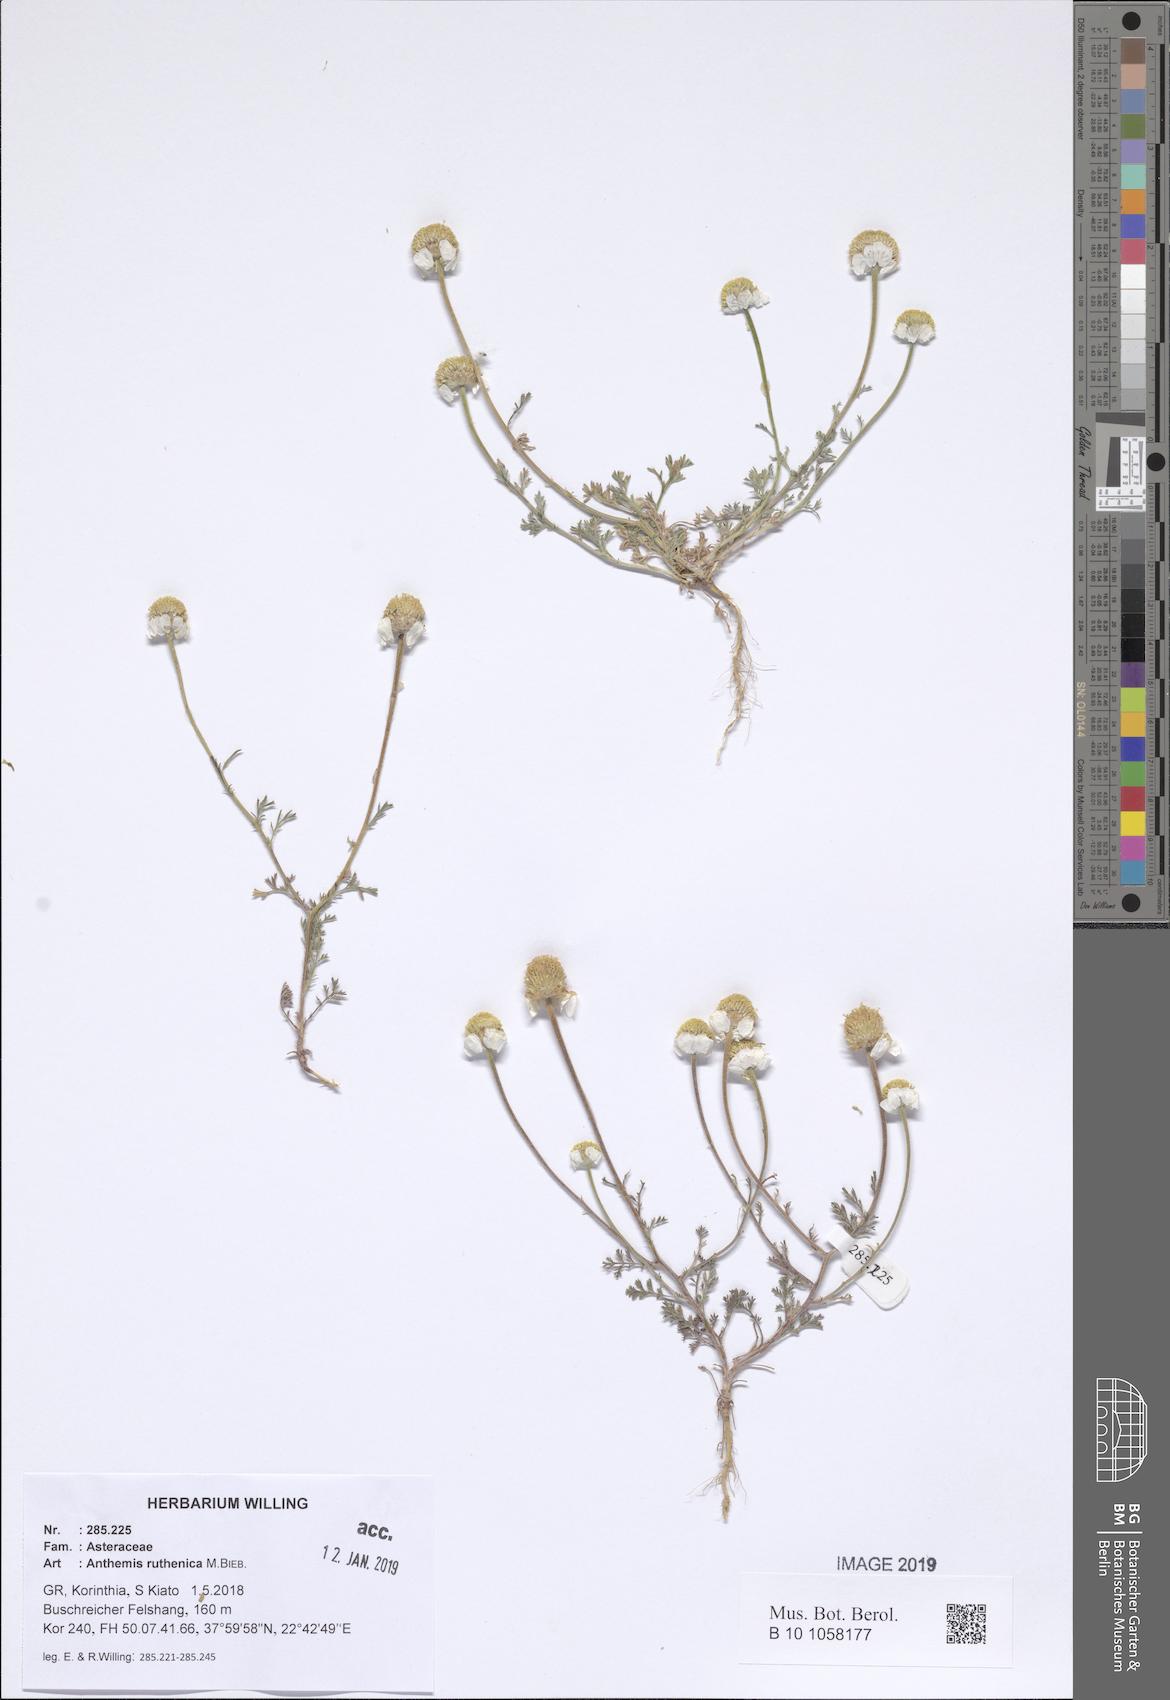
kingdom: Plantae
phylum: Tracheophyta
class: Magnoliopsida
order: Asterales
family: Asteraceae
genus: Anthemis
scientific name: Anthemis ruthenica
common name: Eastern chamomile
